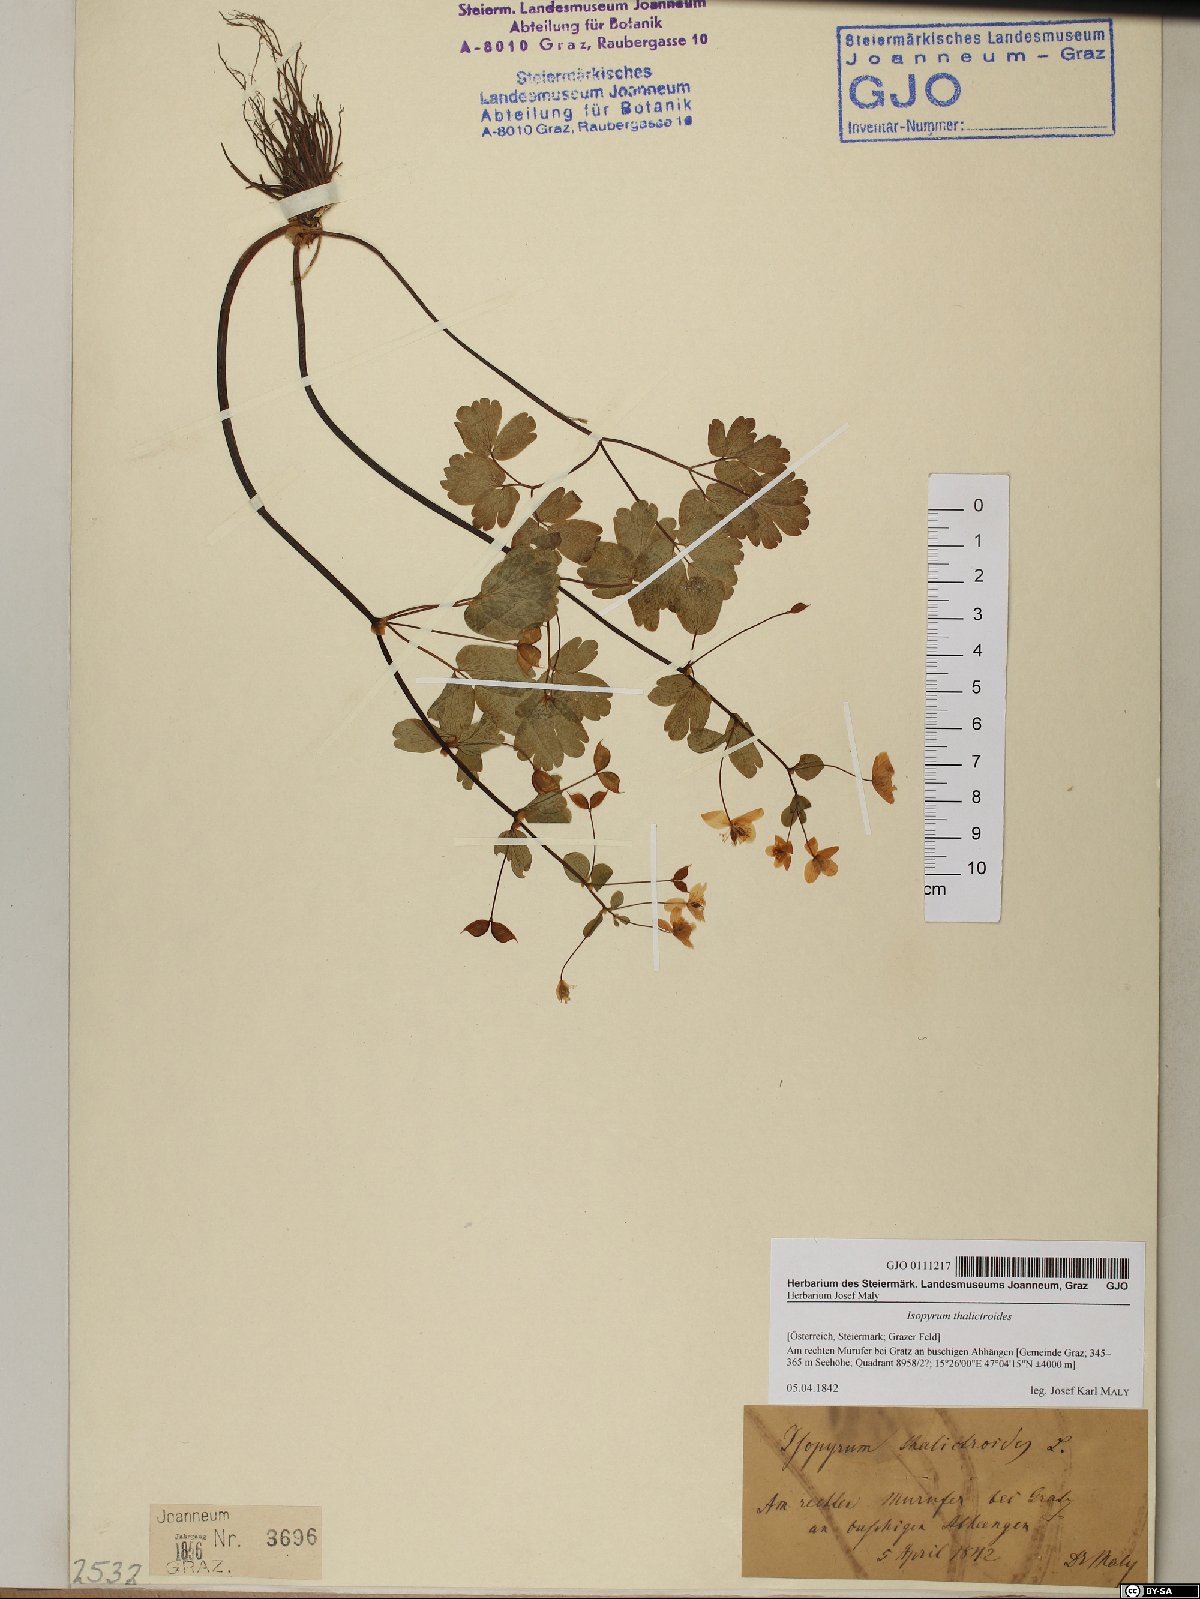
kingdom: Plantae
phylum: Tracheophyta
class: Magnoliopsida
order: Ranunculales
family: Ranunculaceae
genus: Isopyrum
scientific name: Isopyrum thalictroides
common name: Isopyrum
